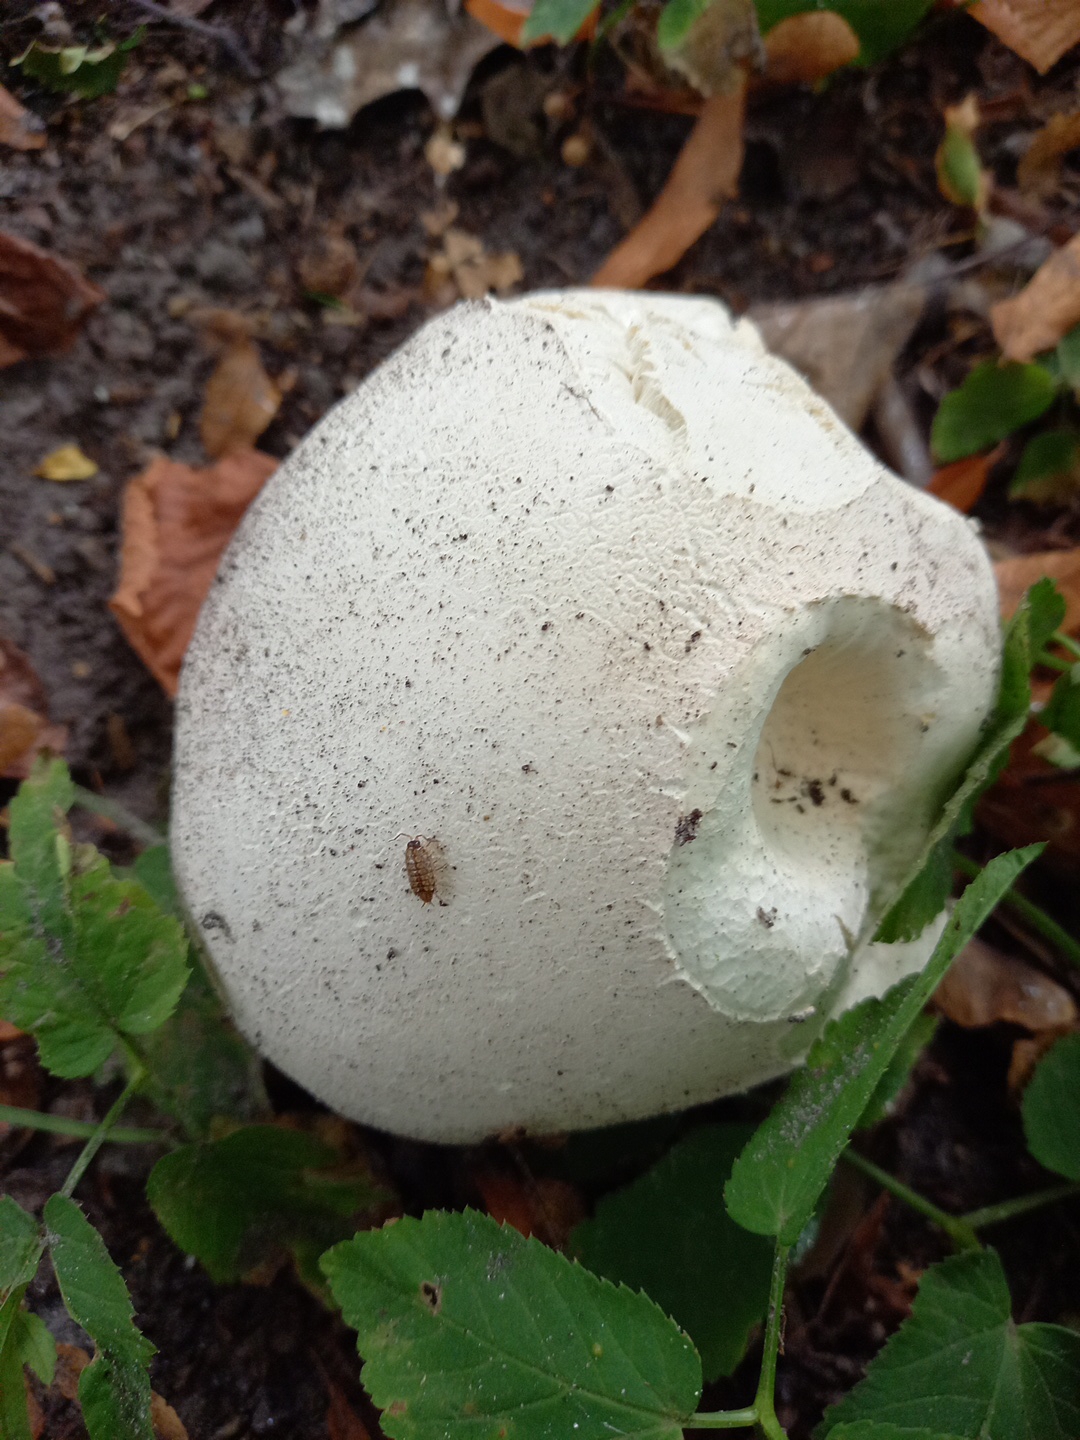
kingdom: Fungi
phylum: Basidiomycota
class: Agaricomycetes
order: Agaricales
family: Lycoperdaceae
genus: Calvatia
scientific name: Calvatia gigantea
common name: kæmpestøvbold
